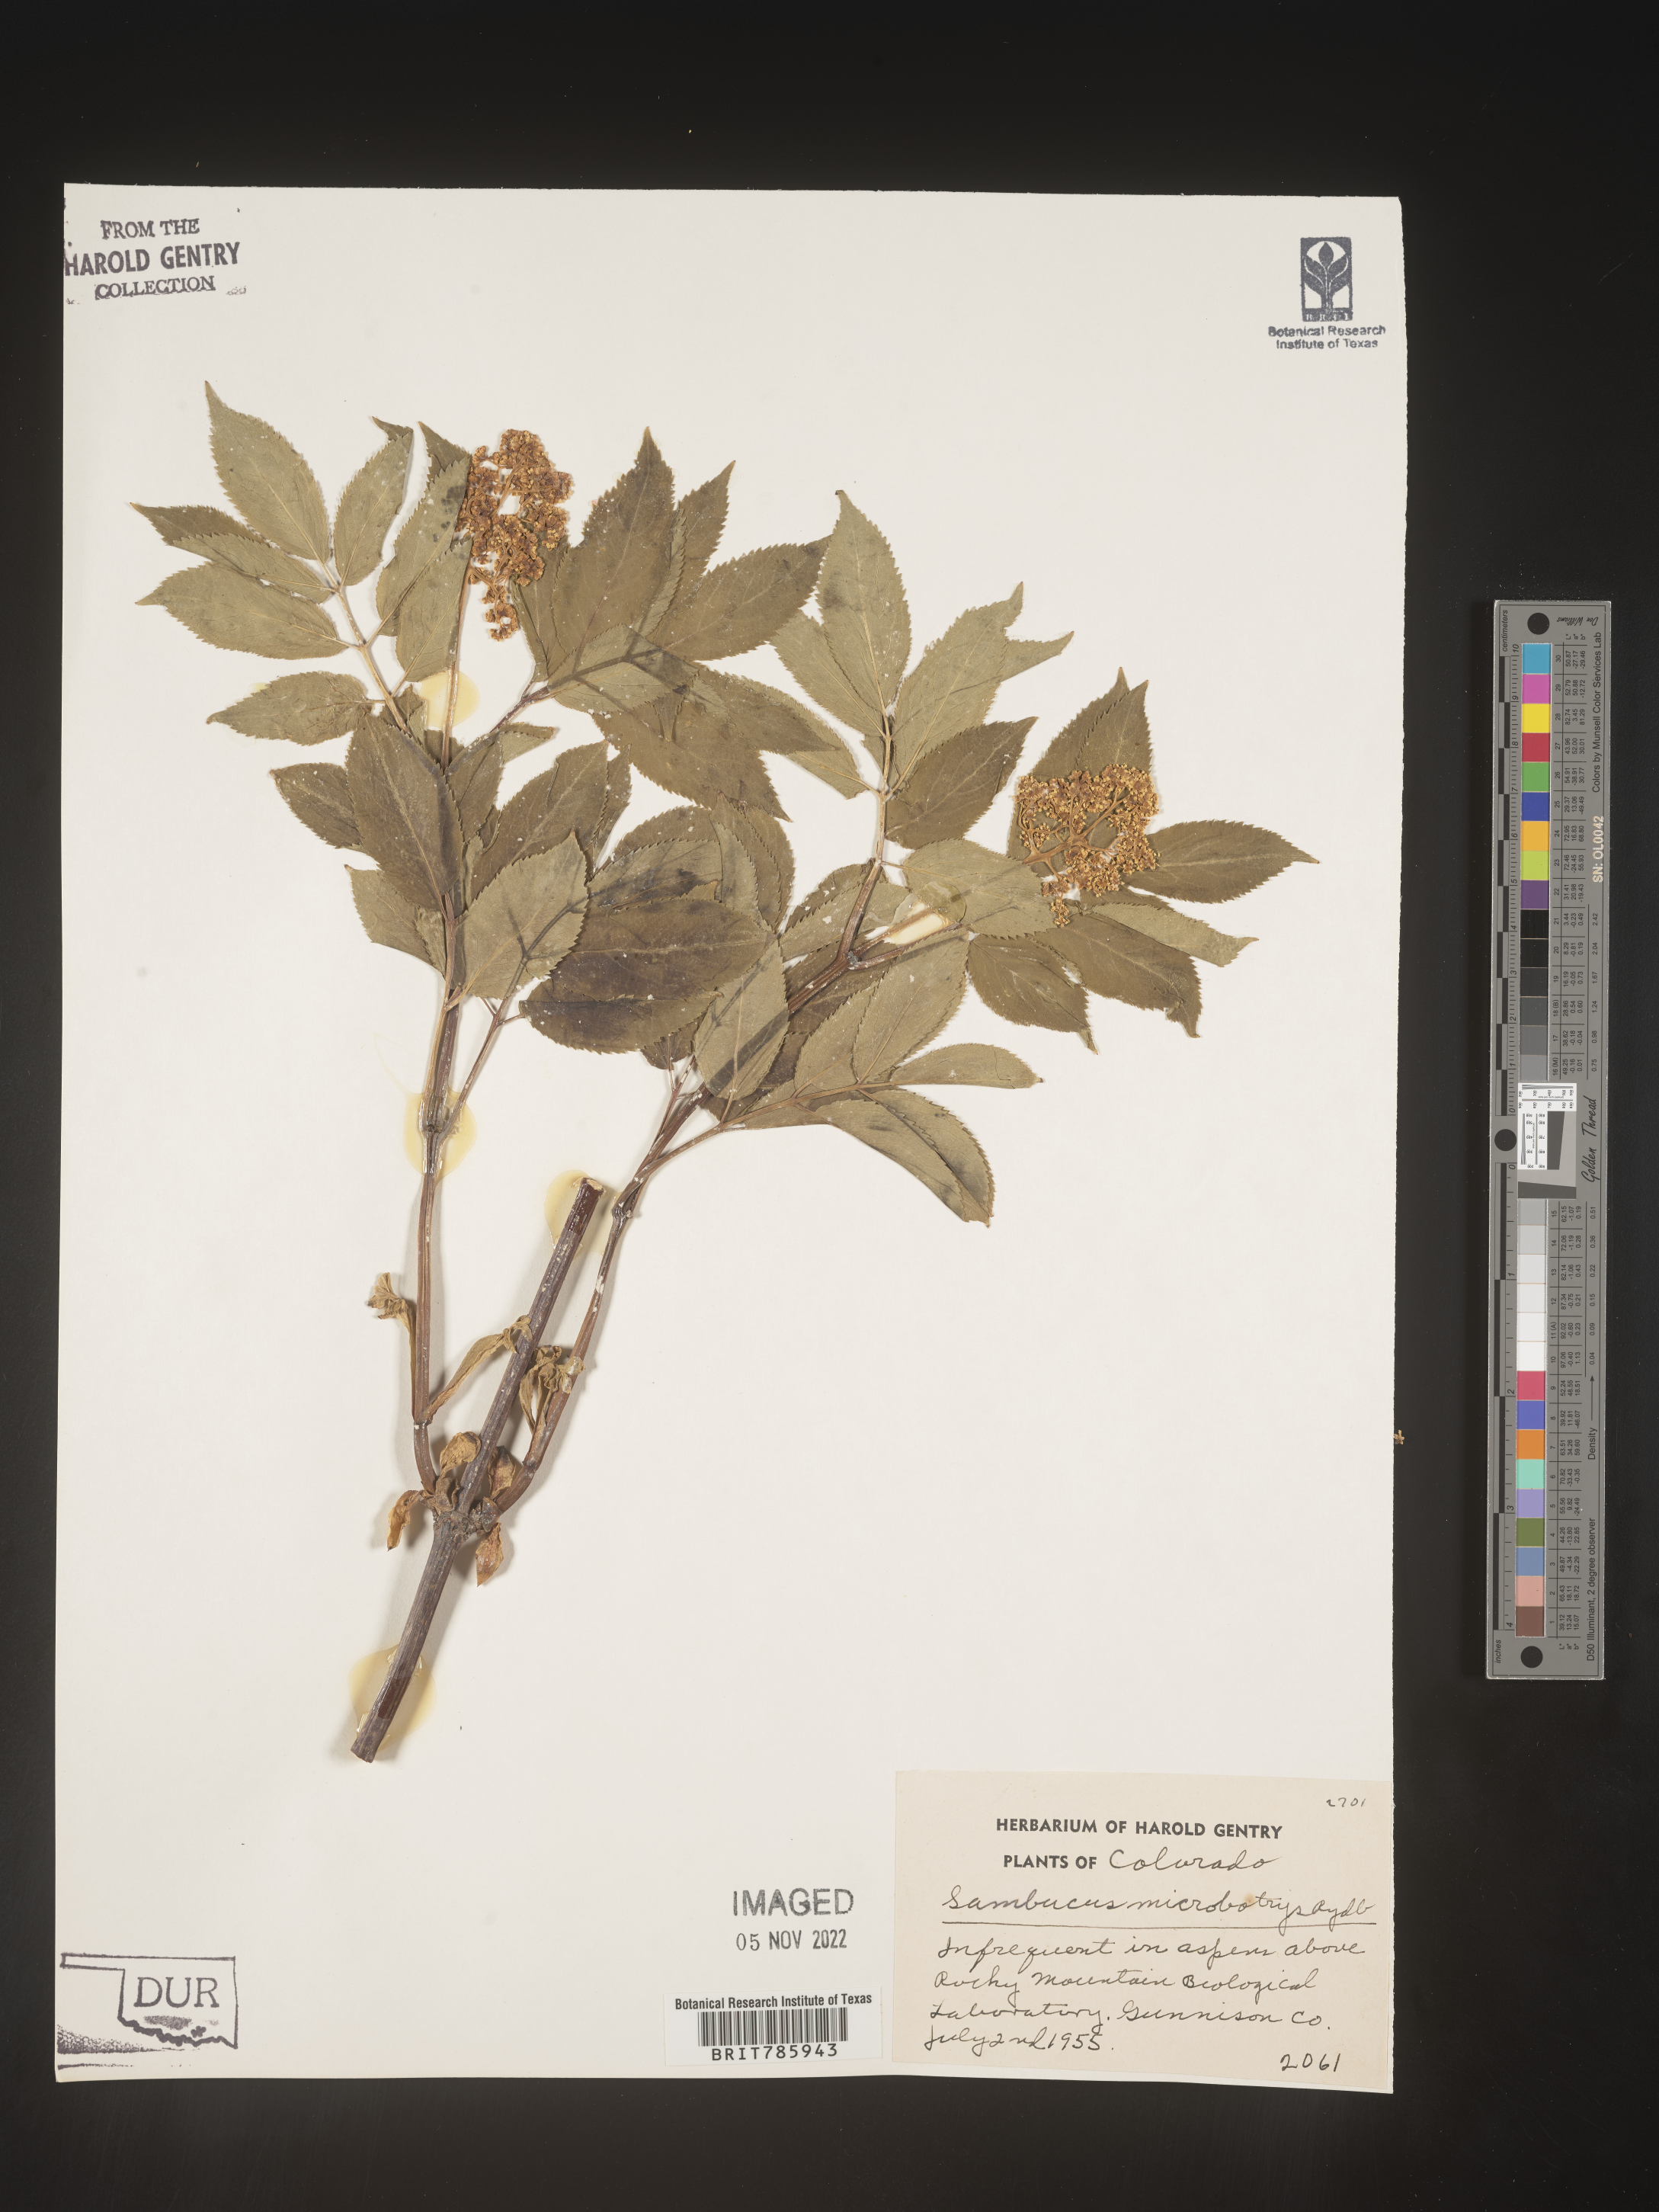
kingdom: Plantae
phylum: Tracheophyta
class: Magnoliopsida
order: Dipsacales
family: Viburnaceae
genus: Sambucus
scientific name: Sambucus
